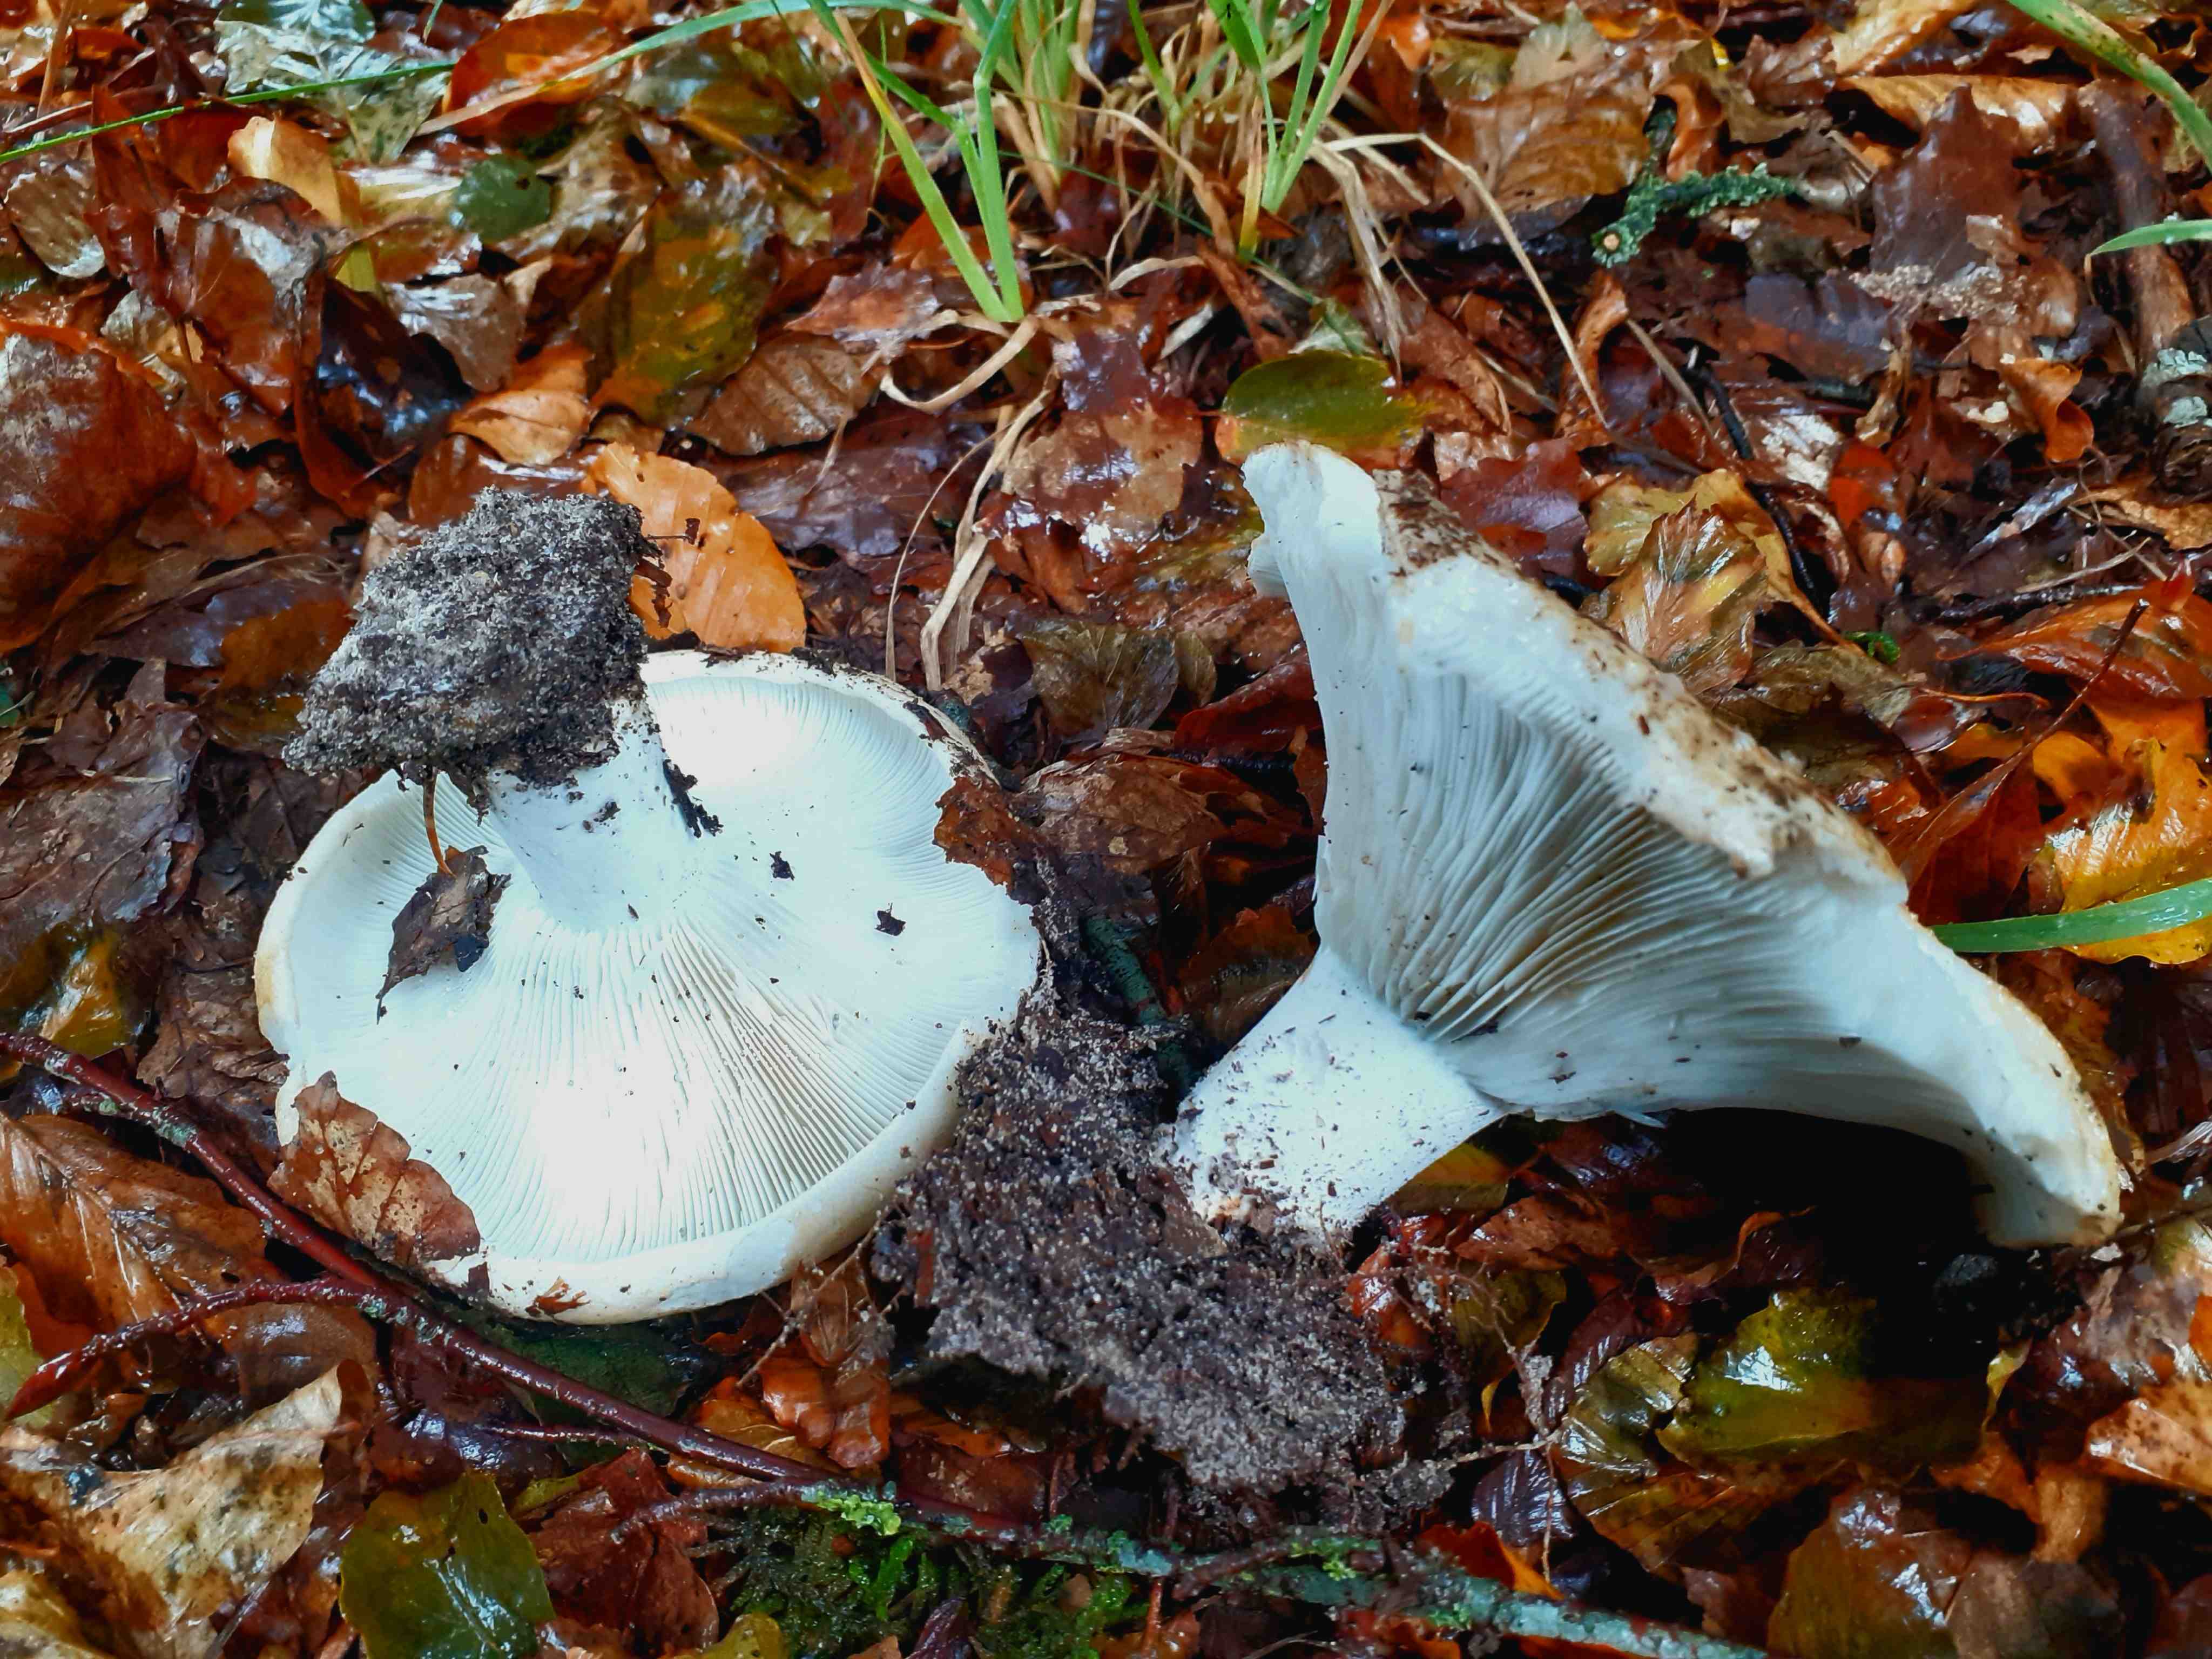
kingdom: Fungi
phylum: Basidiomycota
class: Agaricomycetes
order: Russulales
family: Russulaceae
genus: Russula
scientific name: Russula chloroides
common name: grønhalset tragt-skørhat
